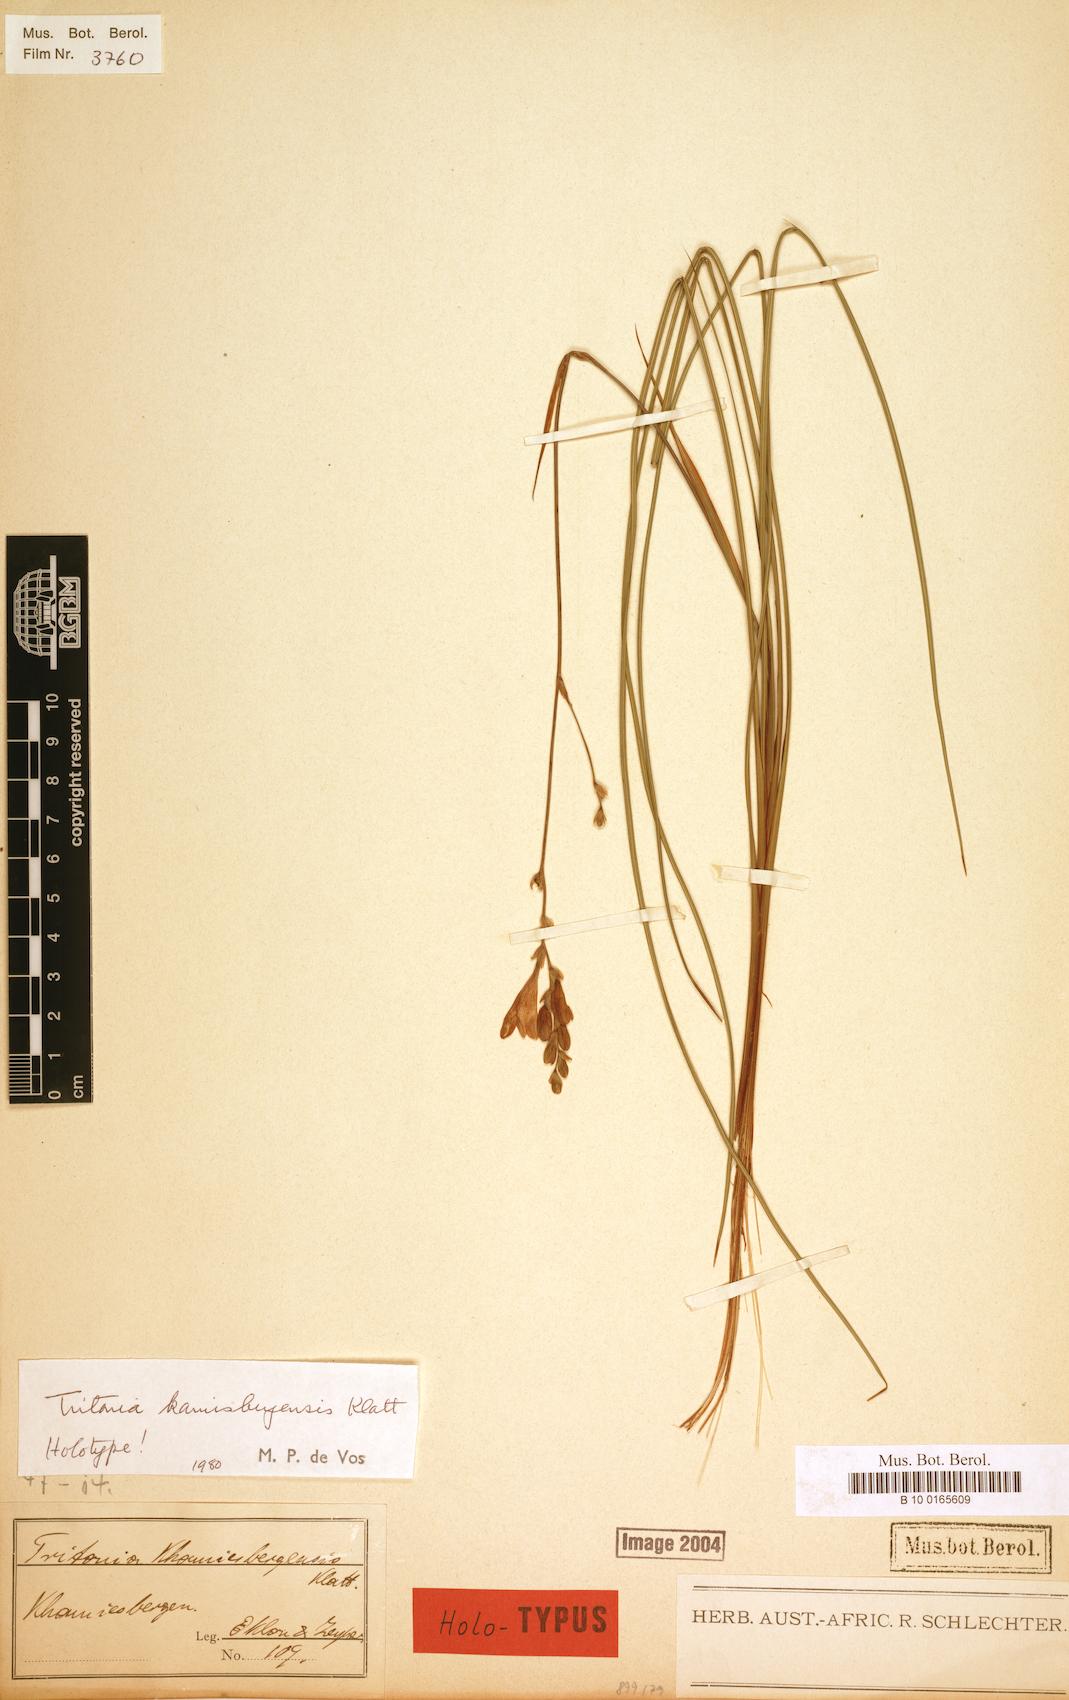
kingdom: Plantae
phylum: Tracheophyta
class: Liliopsida
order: Asparagales
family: Iridaceae
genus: Tritonia
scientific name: Tritonia kamisbergensis
